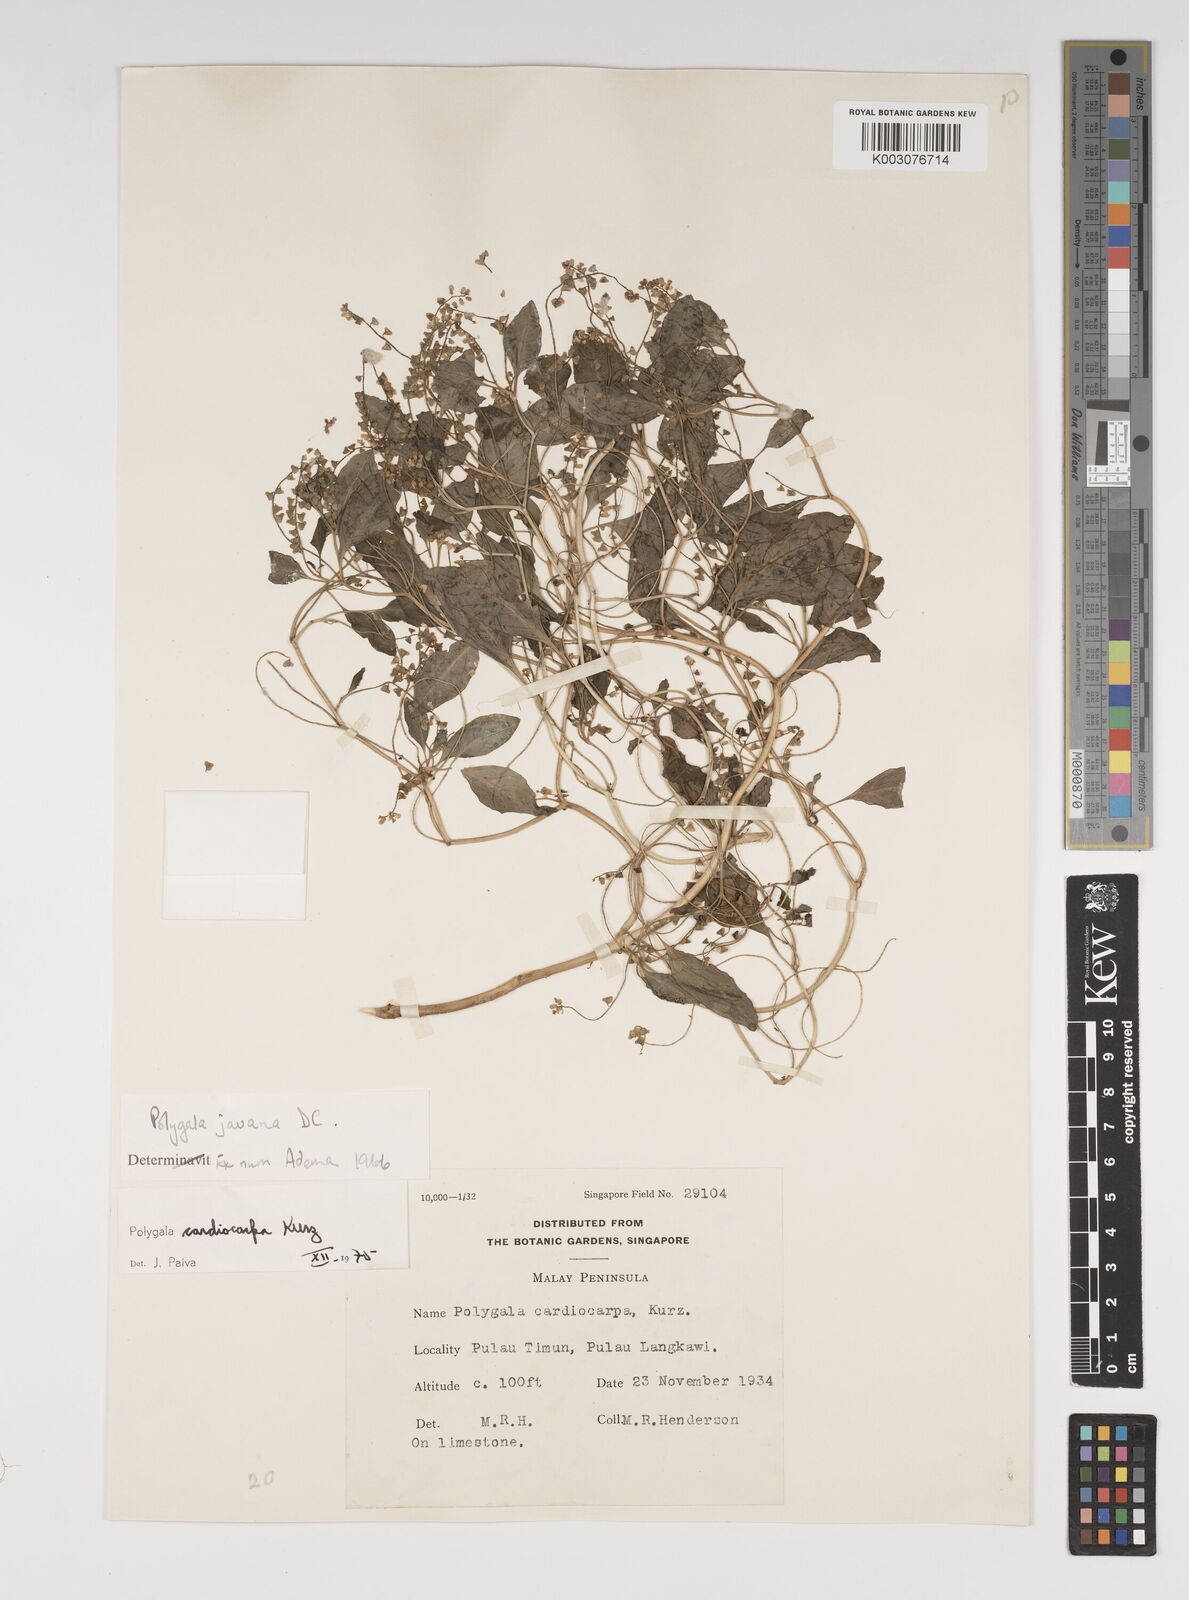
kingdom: Plantae
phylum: Tracheophyta
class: Magnoliopsida
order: Fabales
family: Polygalaceae
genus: Polygala
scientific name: Polygala cardiocarpa
